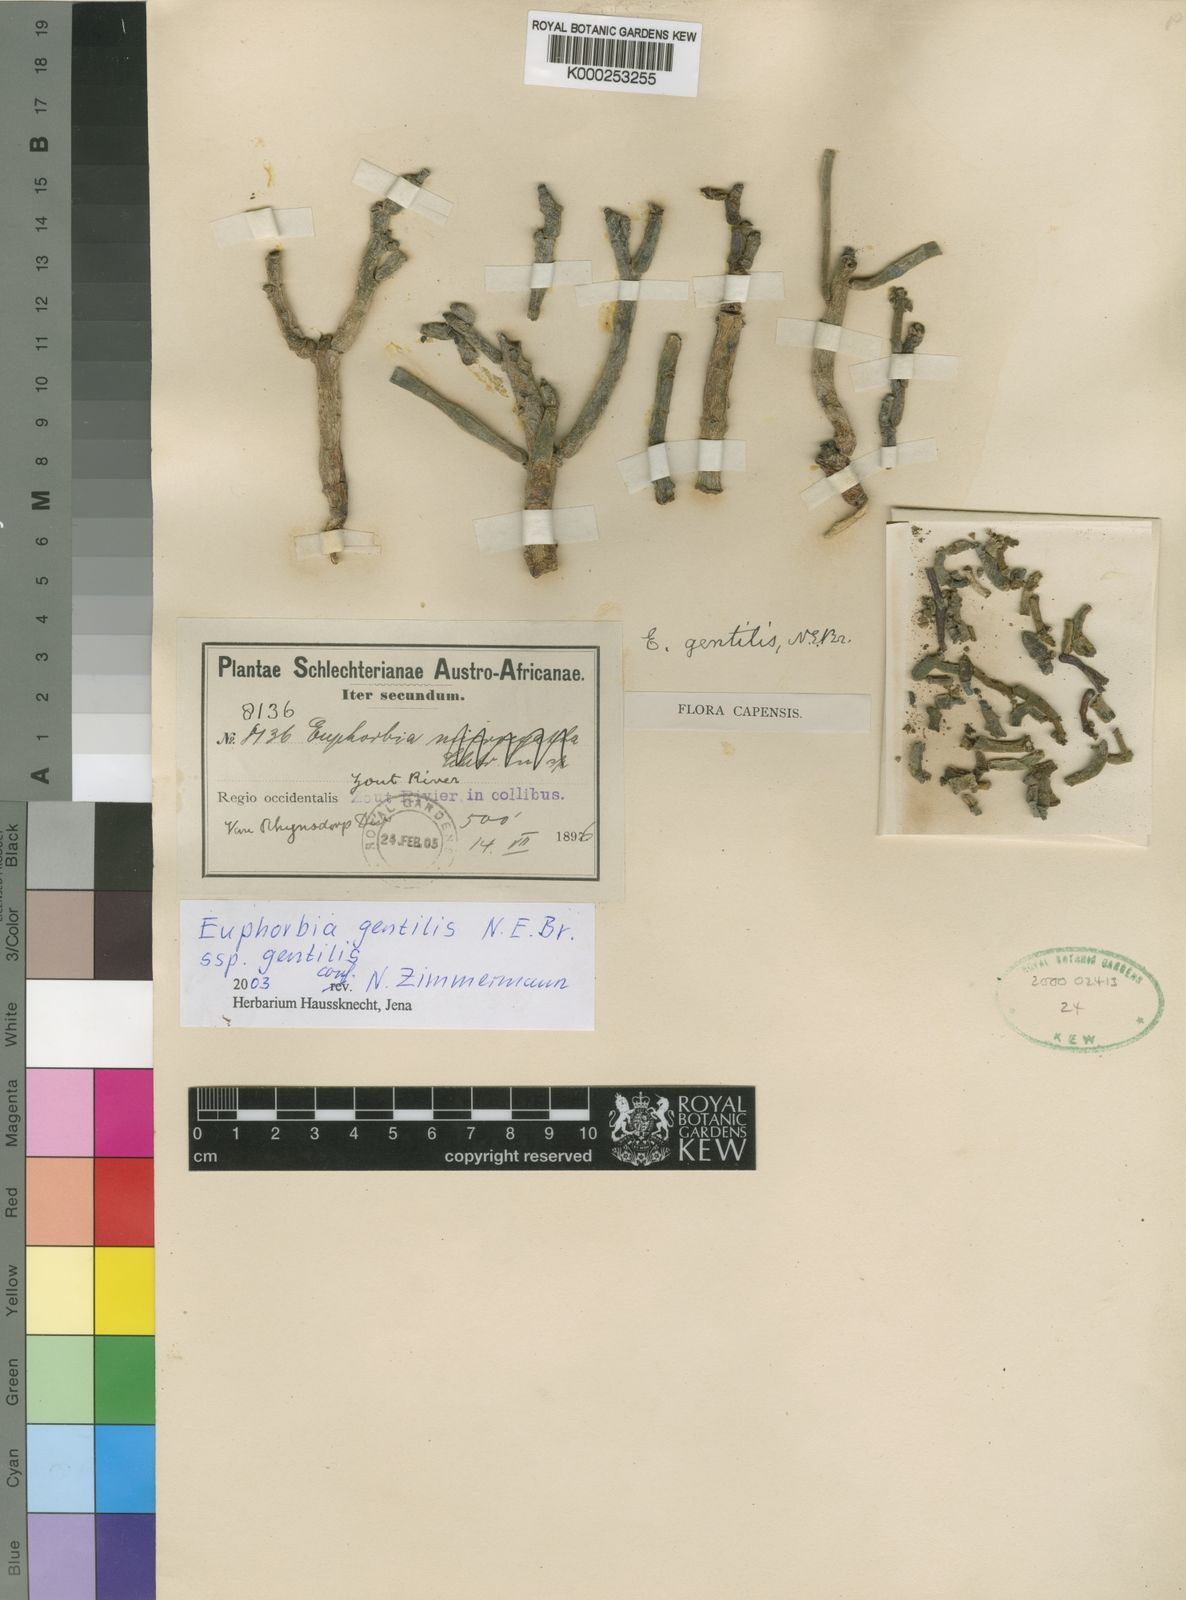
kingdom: Plantae
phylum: Tracheophyta
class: Magnoliopsida
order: Malpighiales
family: Euphorbiaceae
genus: Euphorbia
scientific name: Euphorbia gentilis
